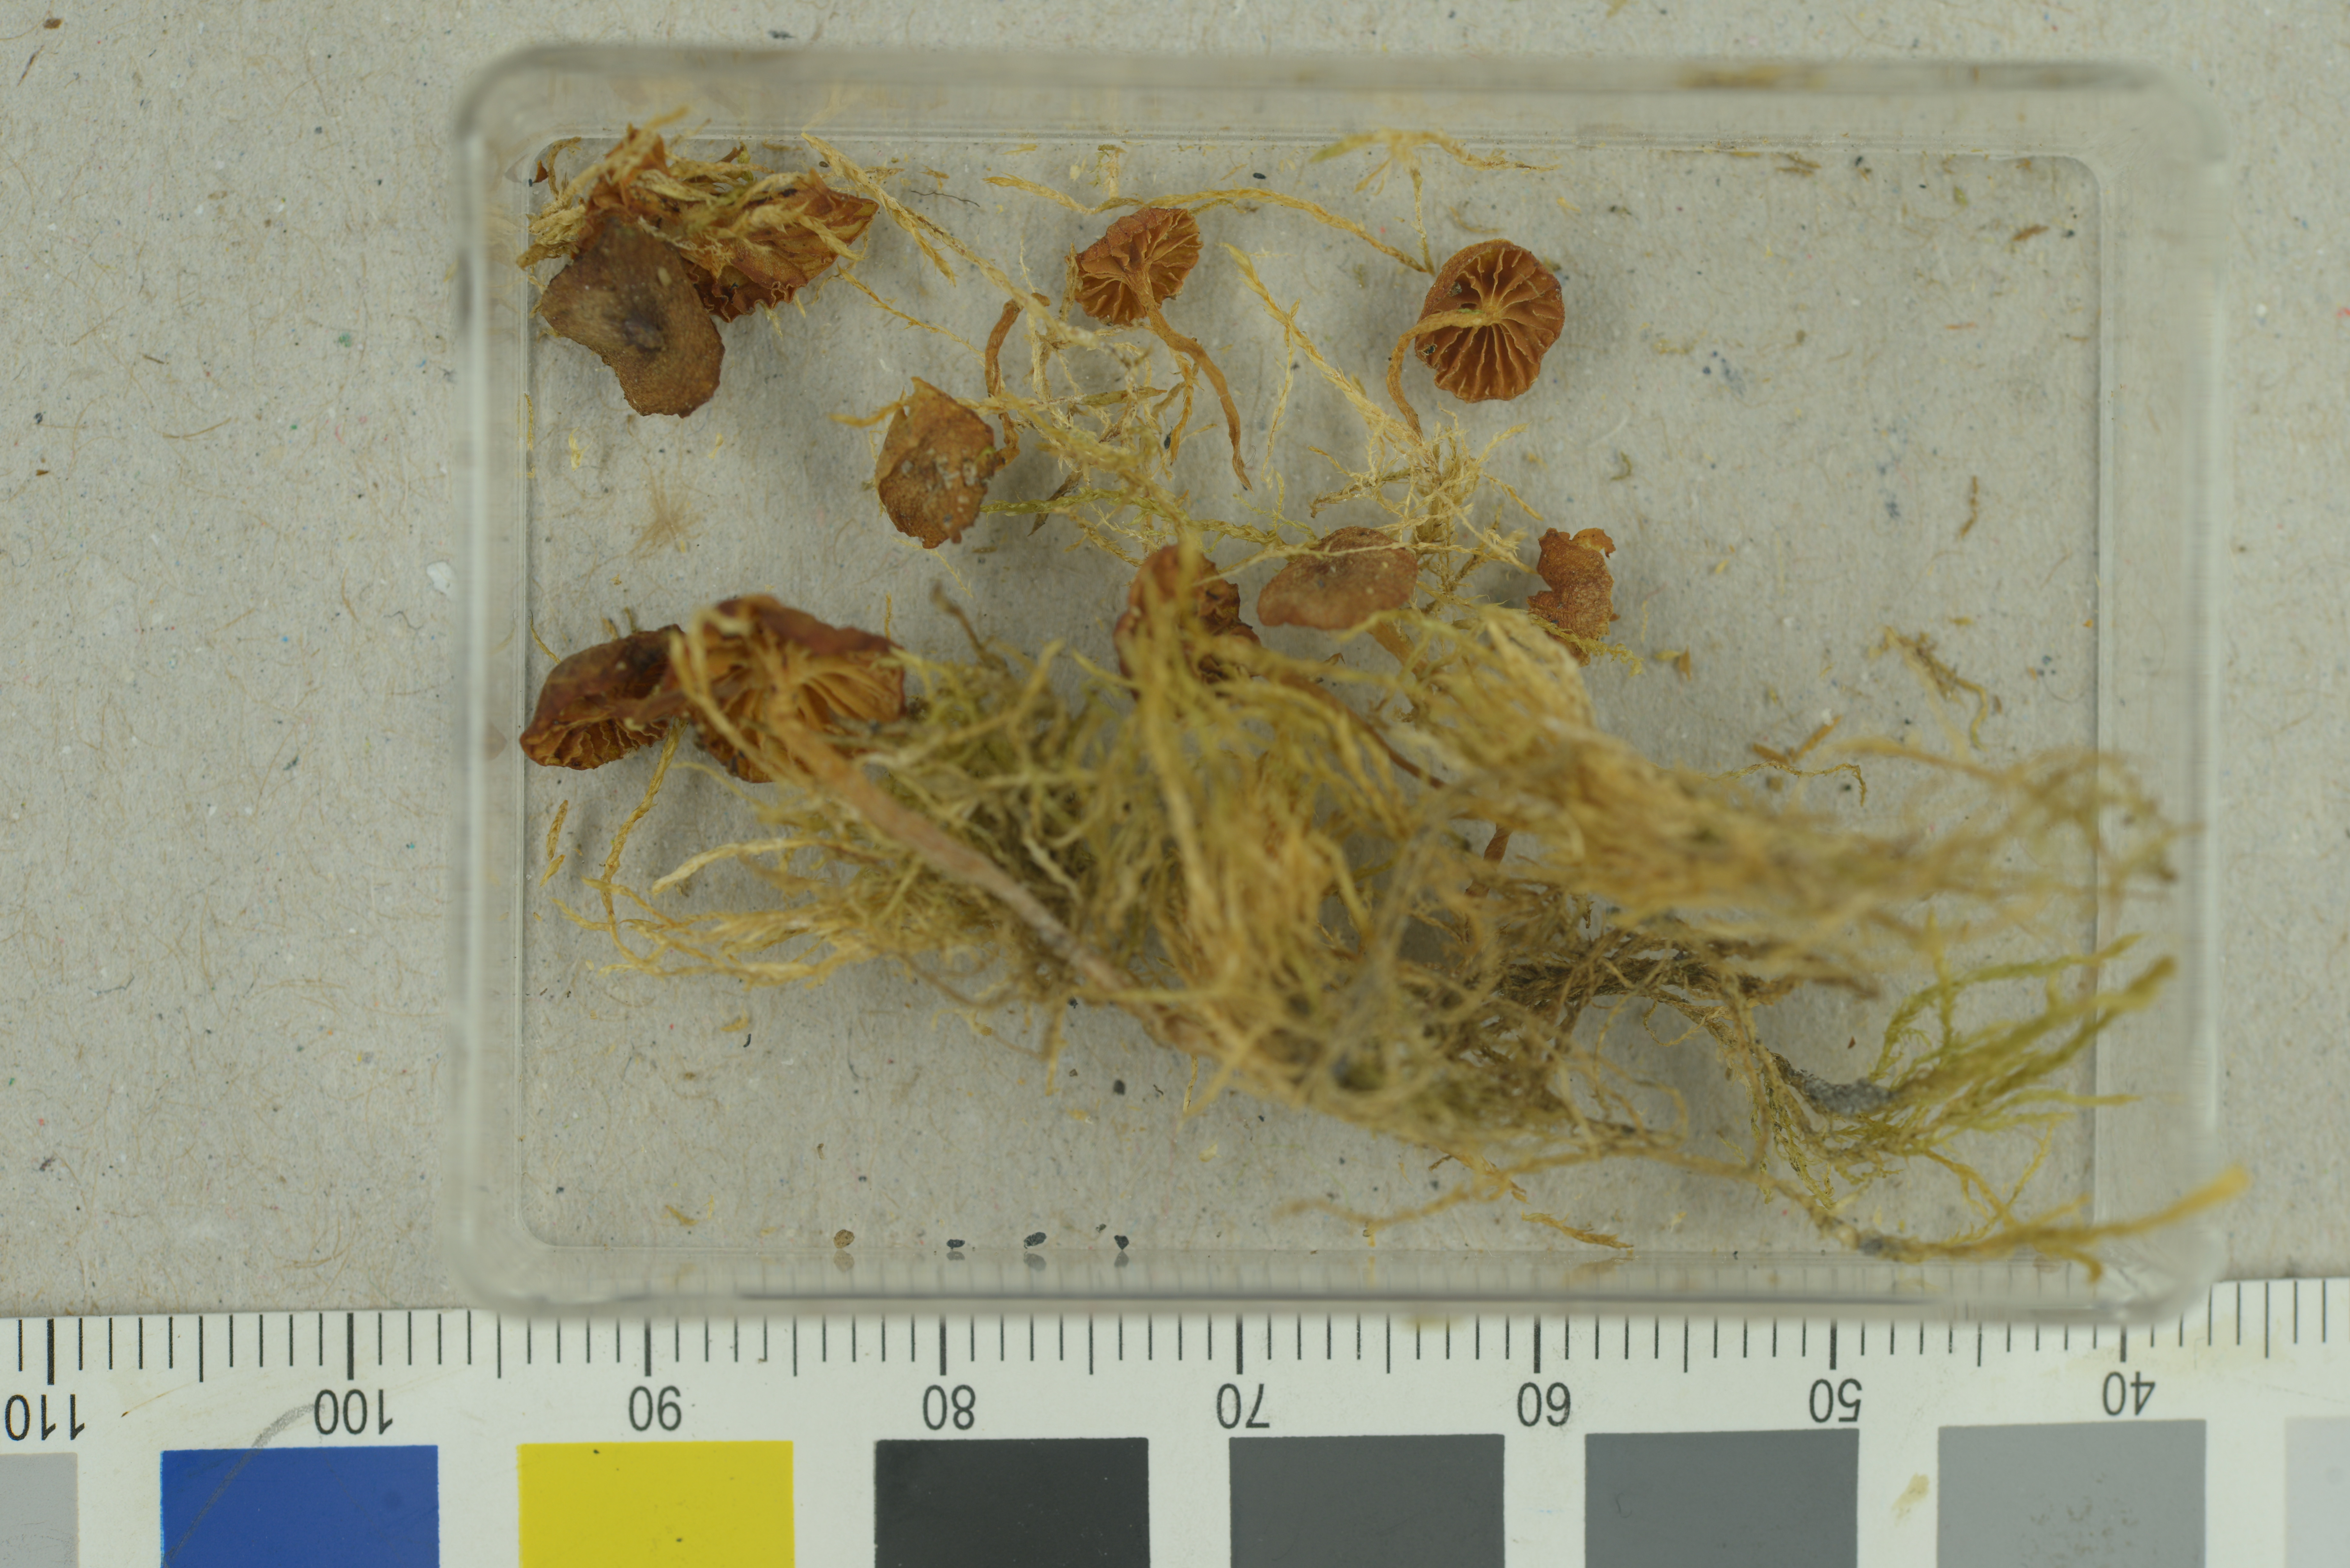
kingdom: Fungi
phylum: Basidiomycota
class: Agaricomycetes
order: Agaricales
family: Hymenogastraceae
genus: Galerina
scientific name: Galerina arctica
